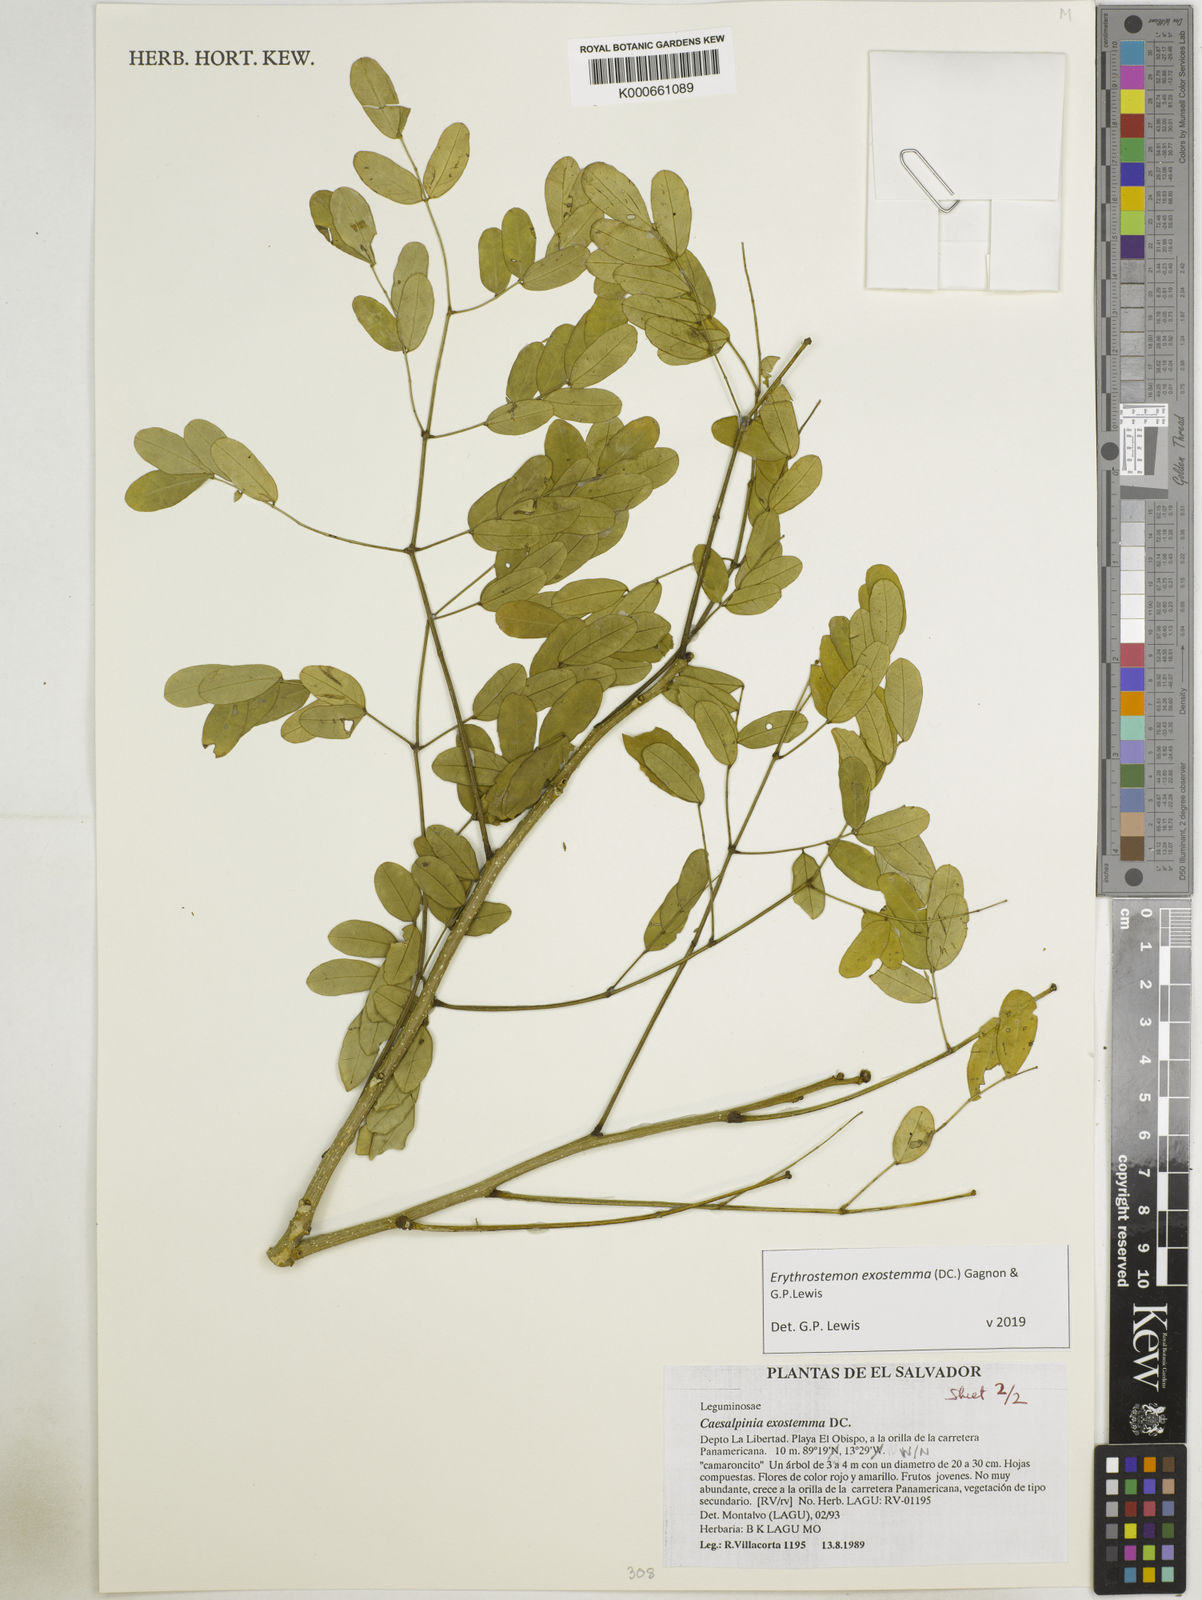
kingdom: Plantae
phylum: Tracheophyta
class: Magnoliopsida
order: Fabales
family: Fabaceae
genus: Erythrostemon
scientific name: Erythrostemon exostemma
